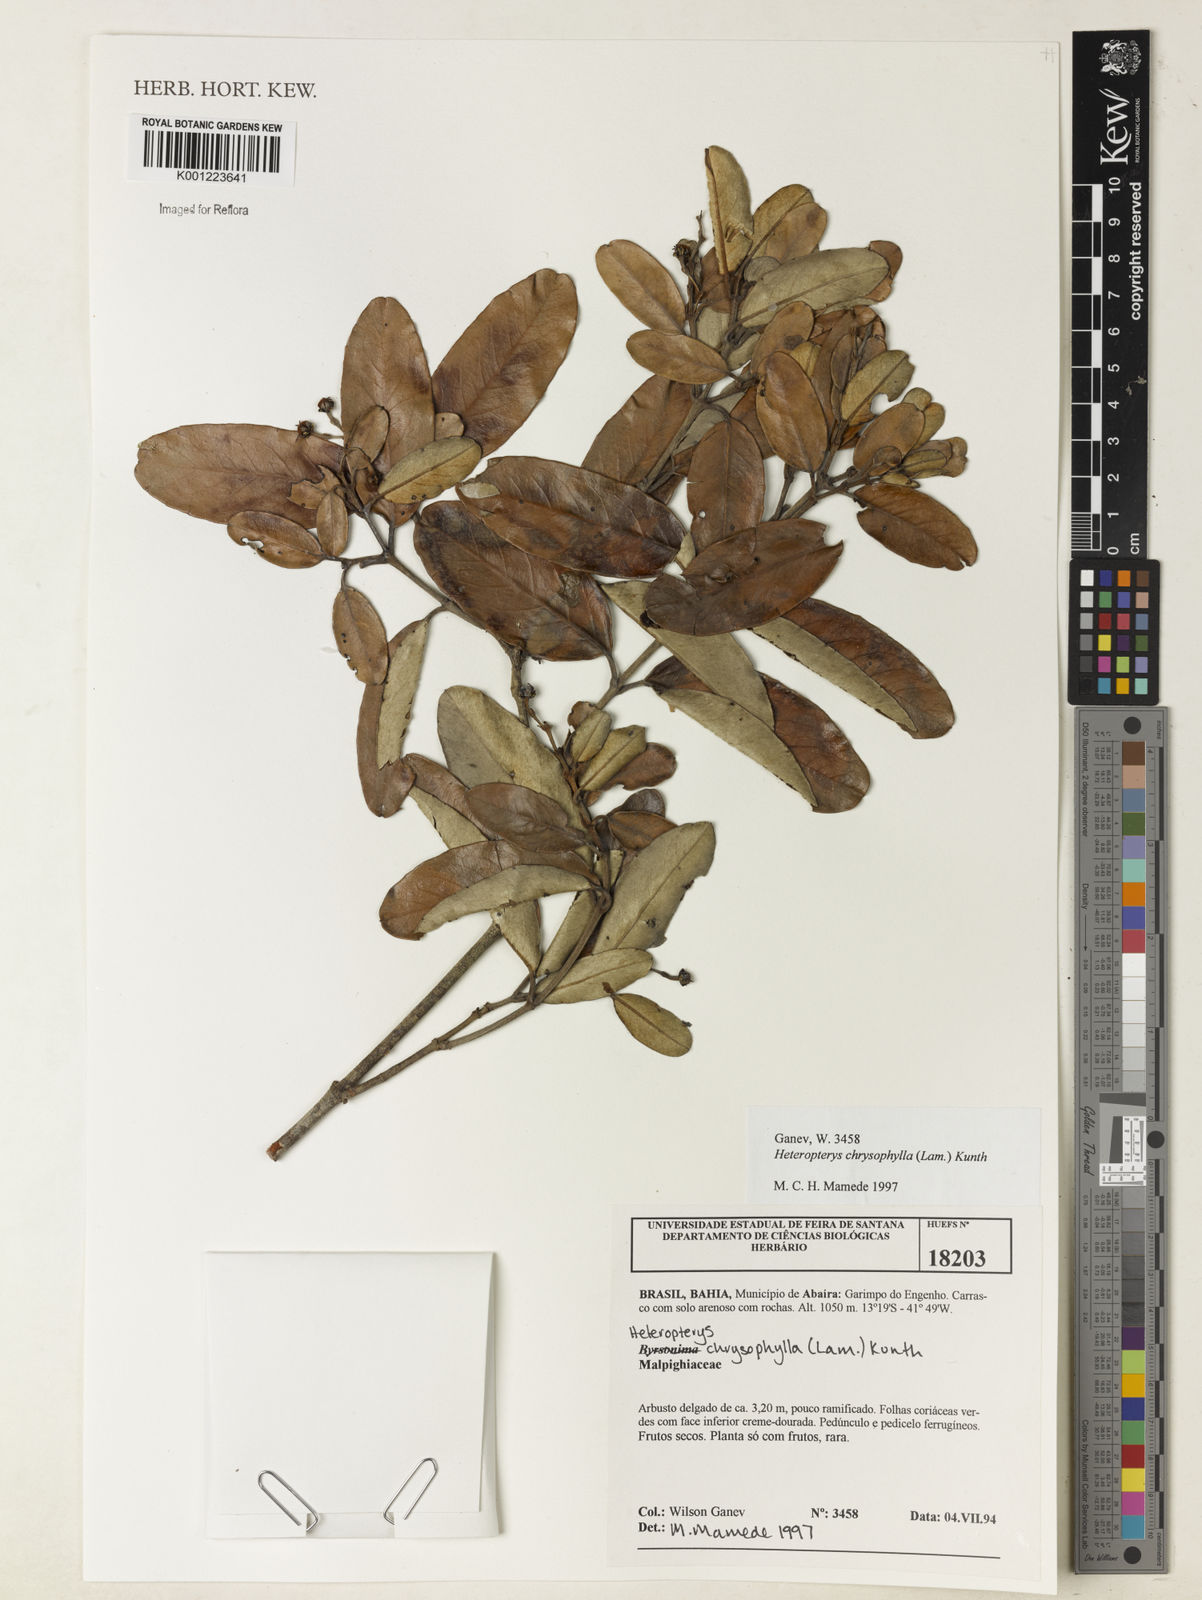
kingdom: Plantae
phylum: Tracheophyta
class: Magnoliopsida
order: Malpighiales
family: Malpighiaceae
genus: Heteropterys
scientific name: Heteropterys chrysophylla
